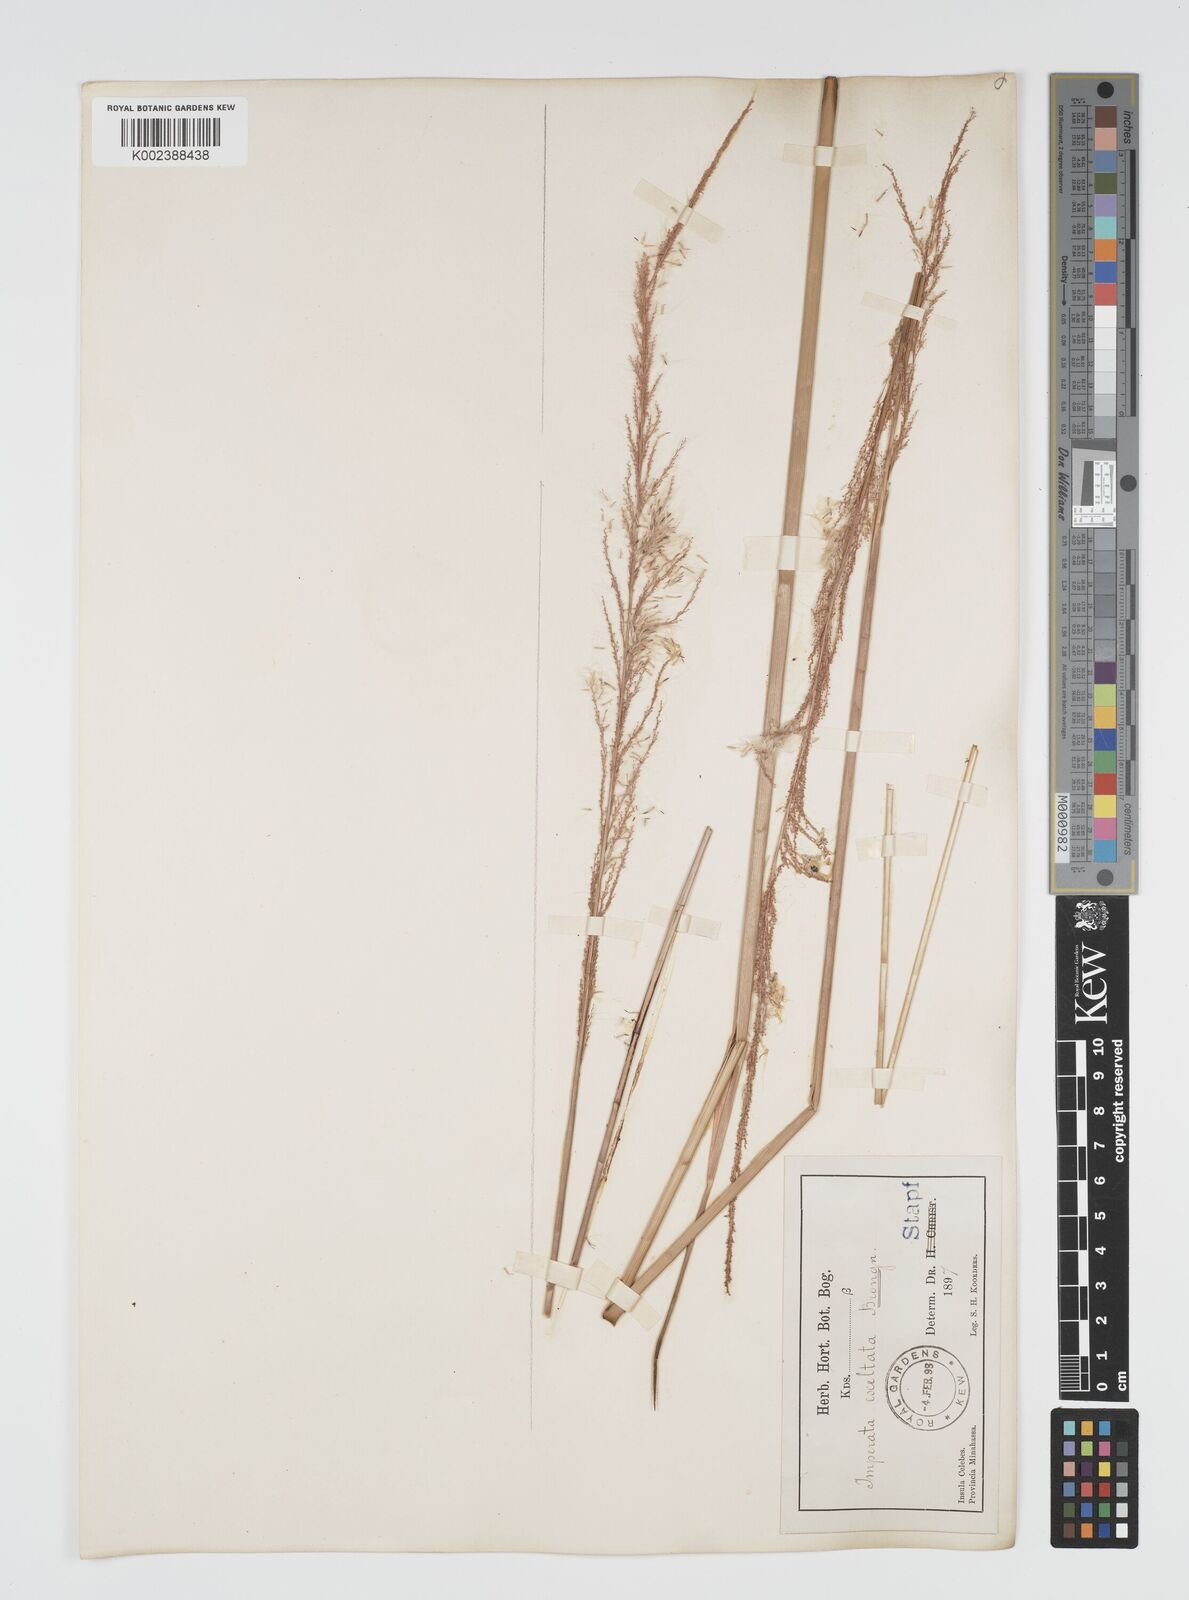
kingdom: Plantae
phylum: Tracheophyta
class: Liliopsida
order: Poales
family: Poaceae
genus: Imperata
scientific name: Imperata conferta
